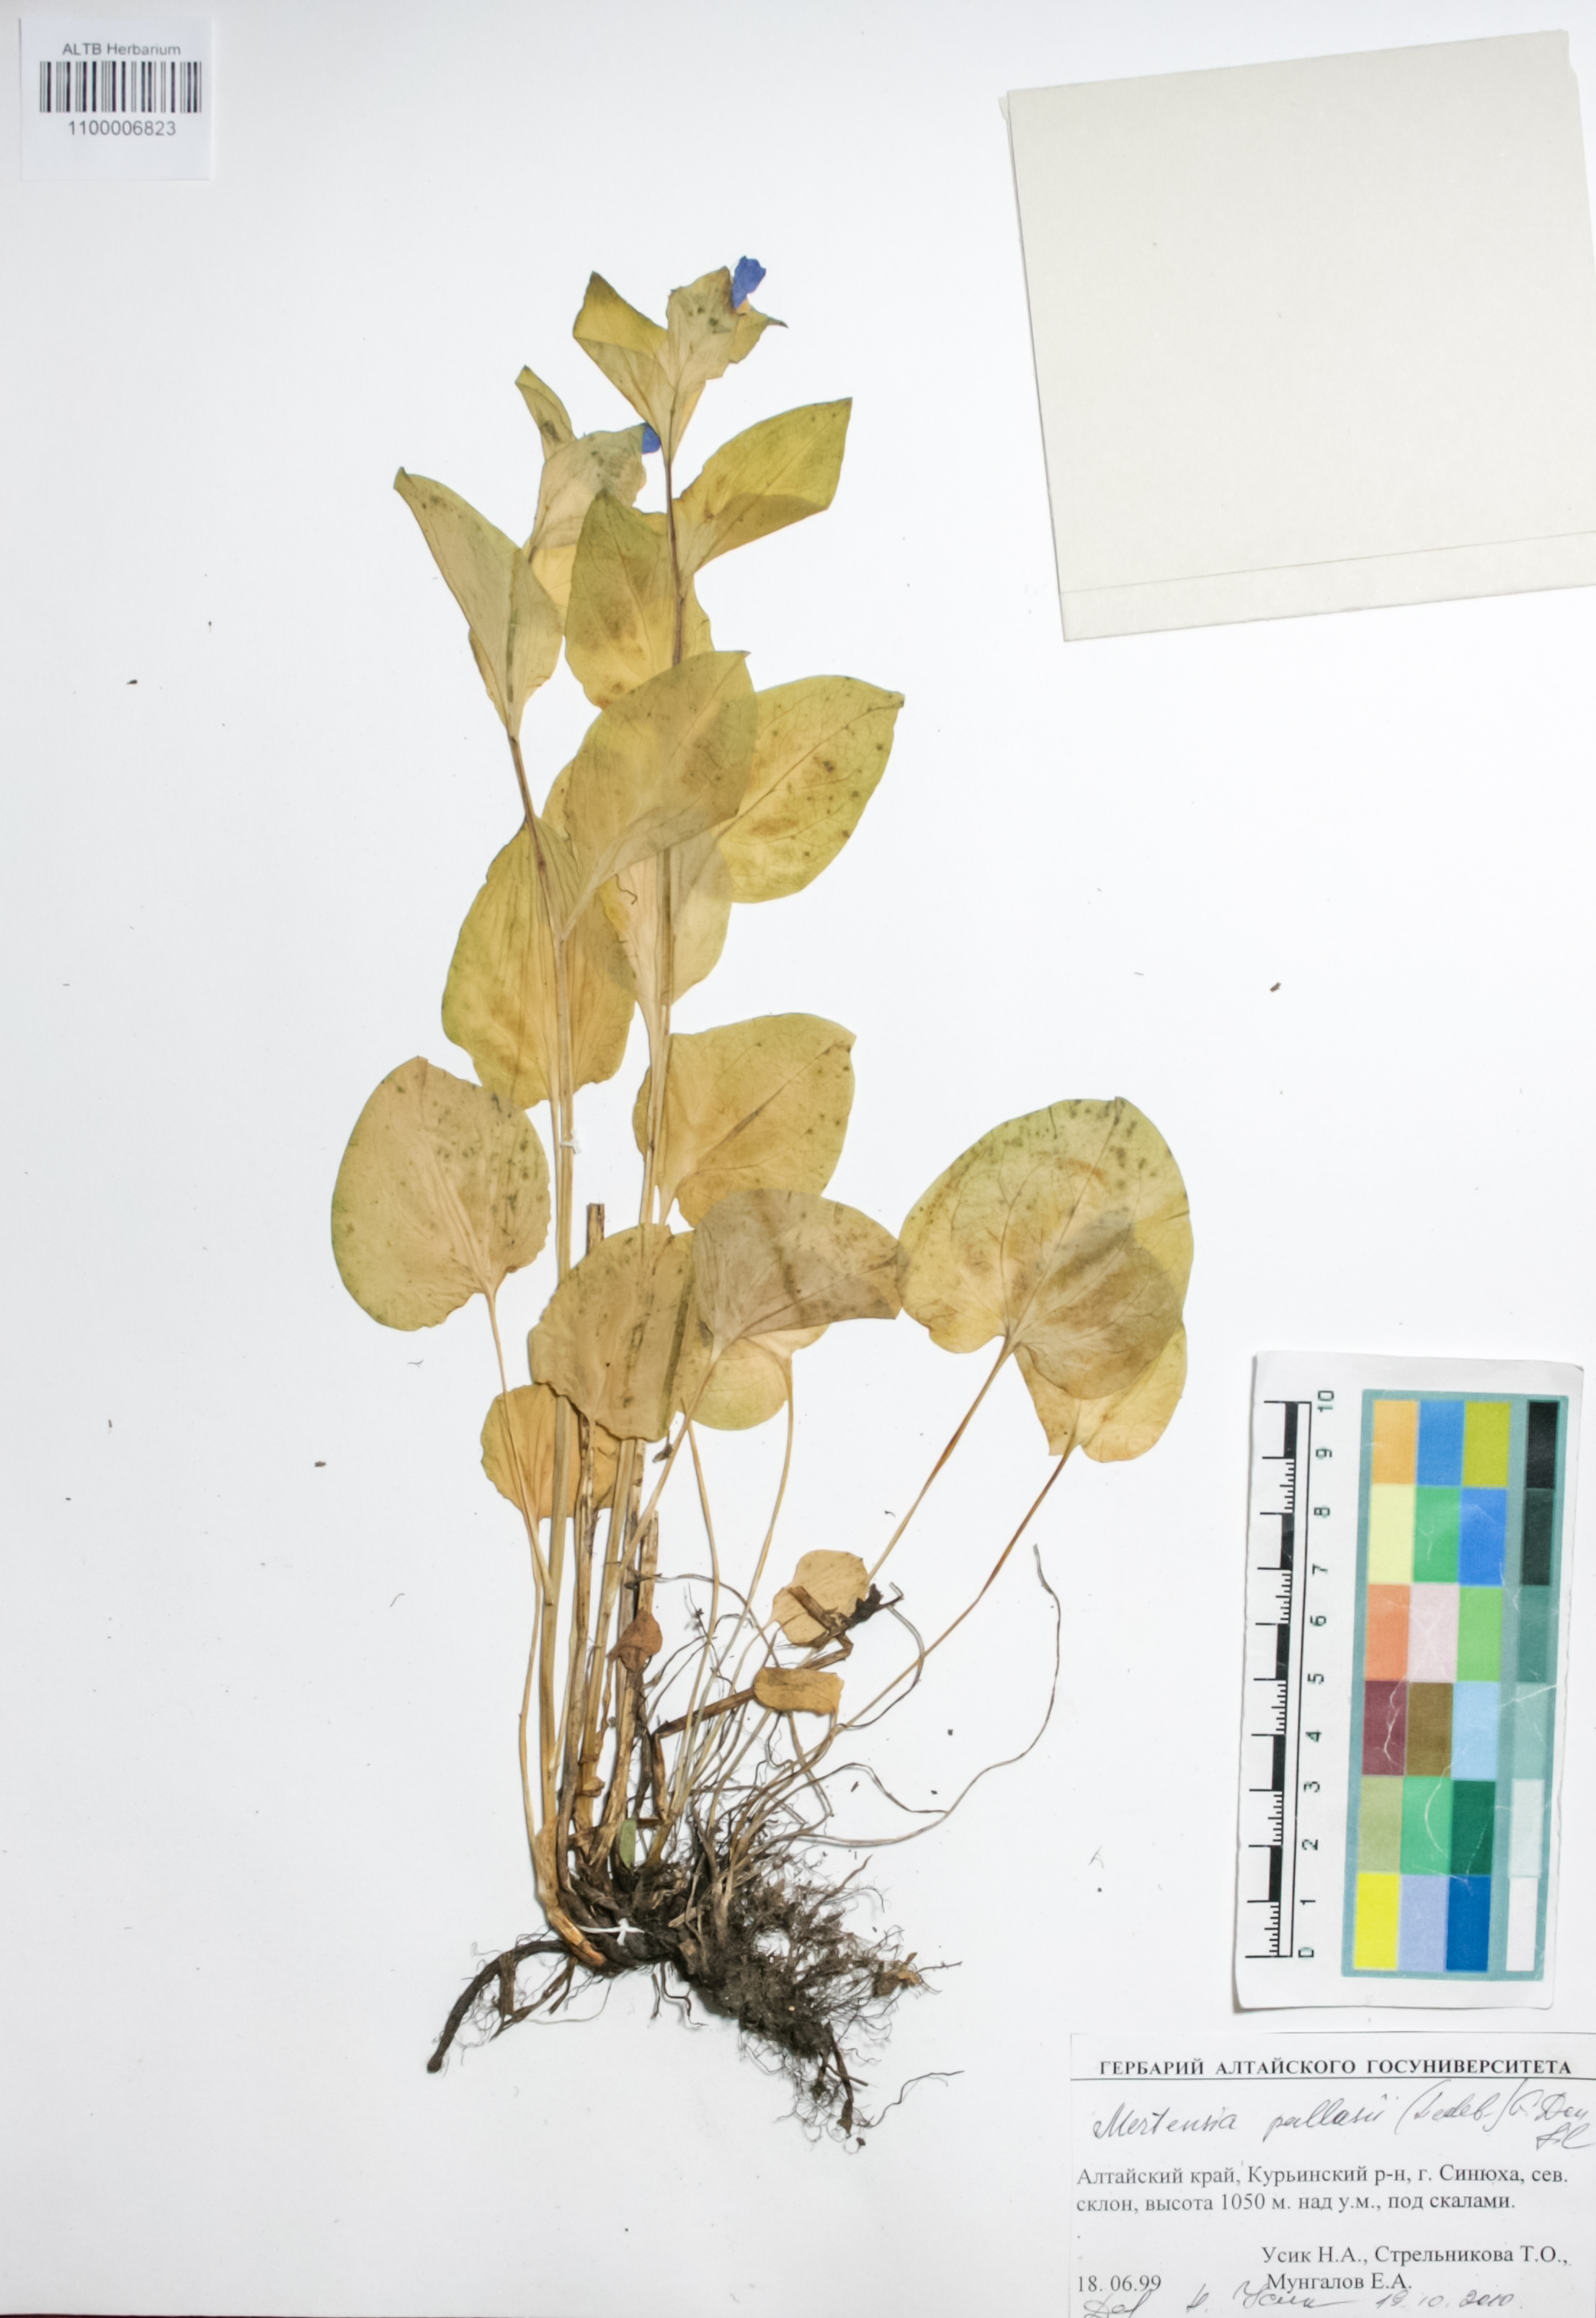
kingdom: Plantae
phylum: Tracheophyta
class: Magnoliopsida
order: Boraginales
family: Boraginaceae
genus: Mertensia
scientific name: Mertensia pallasii
